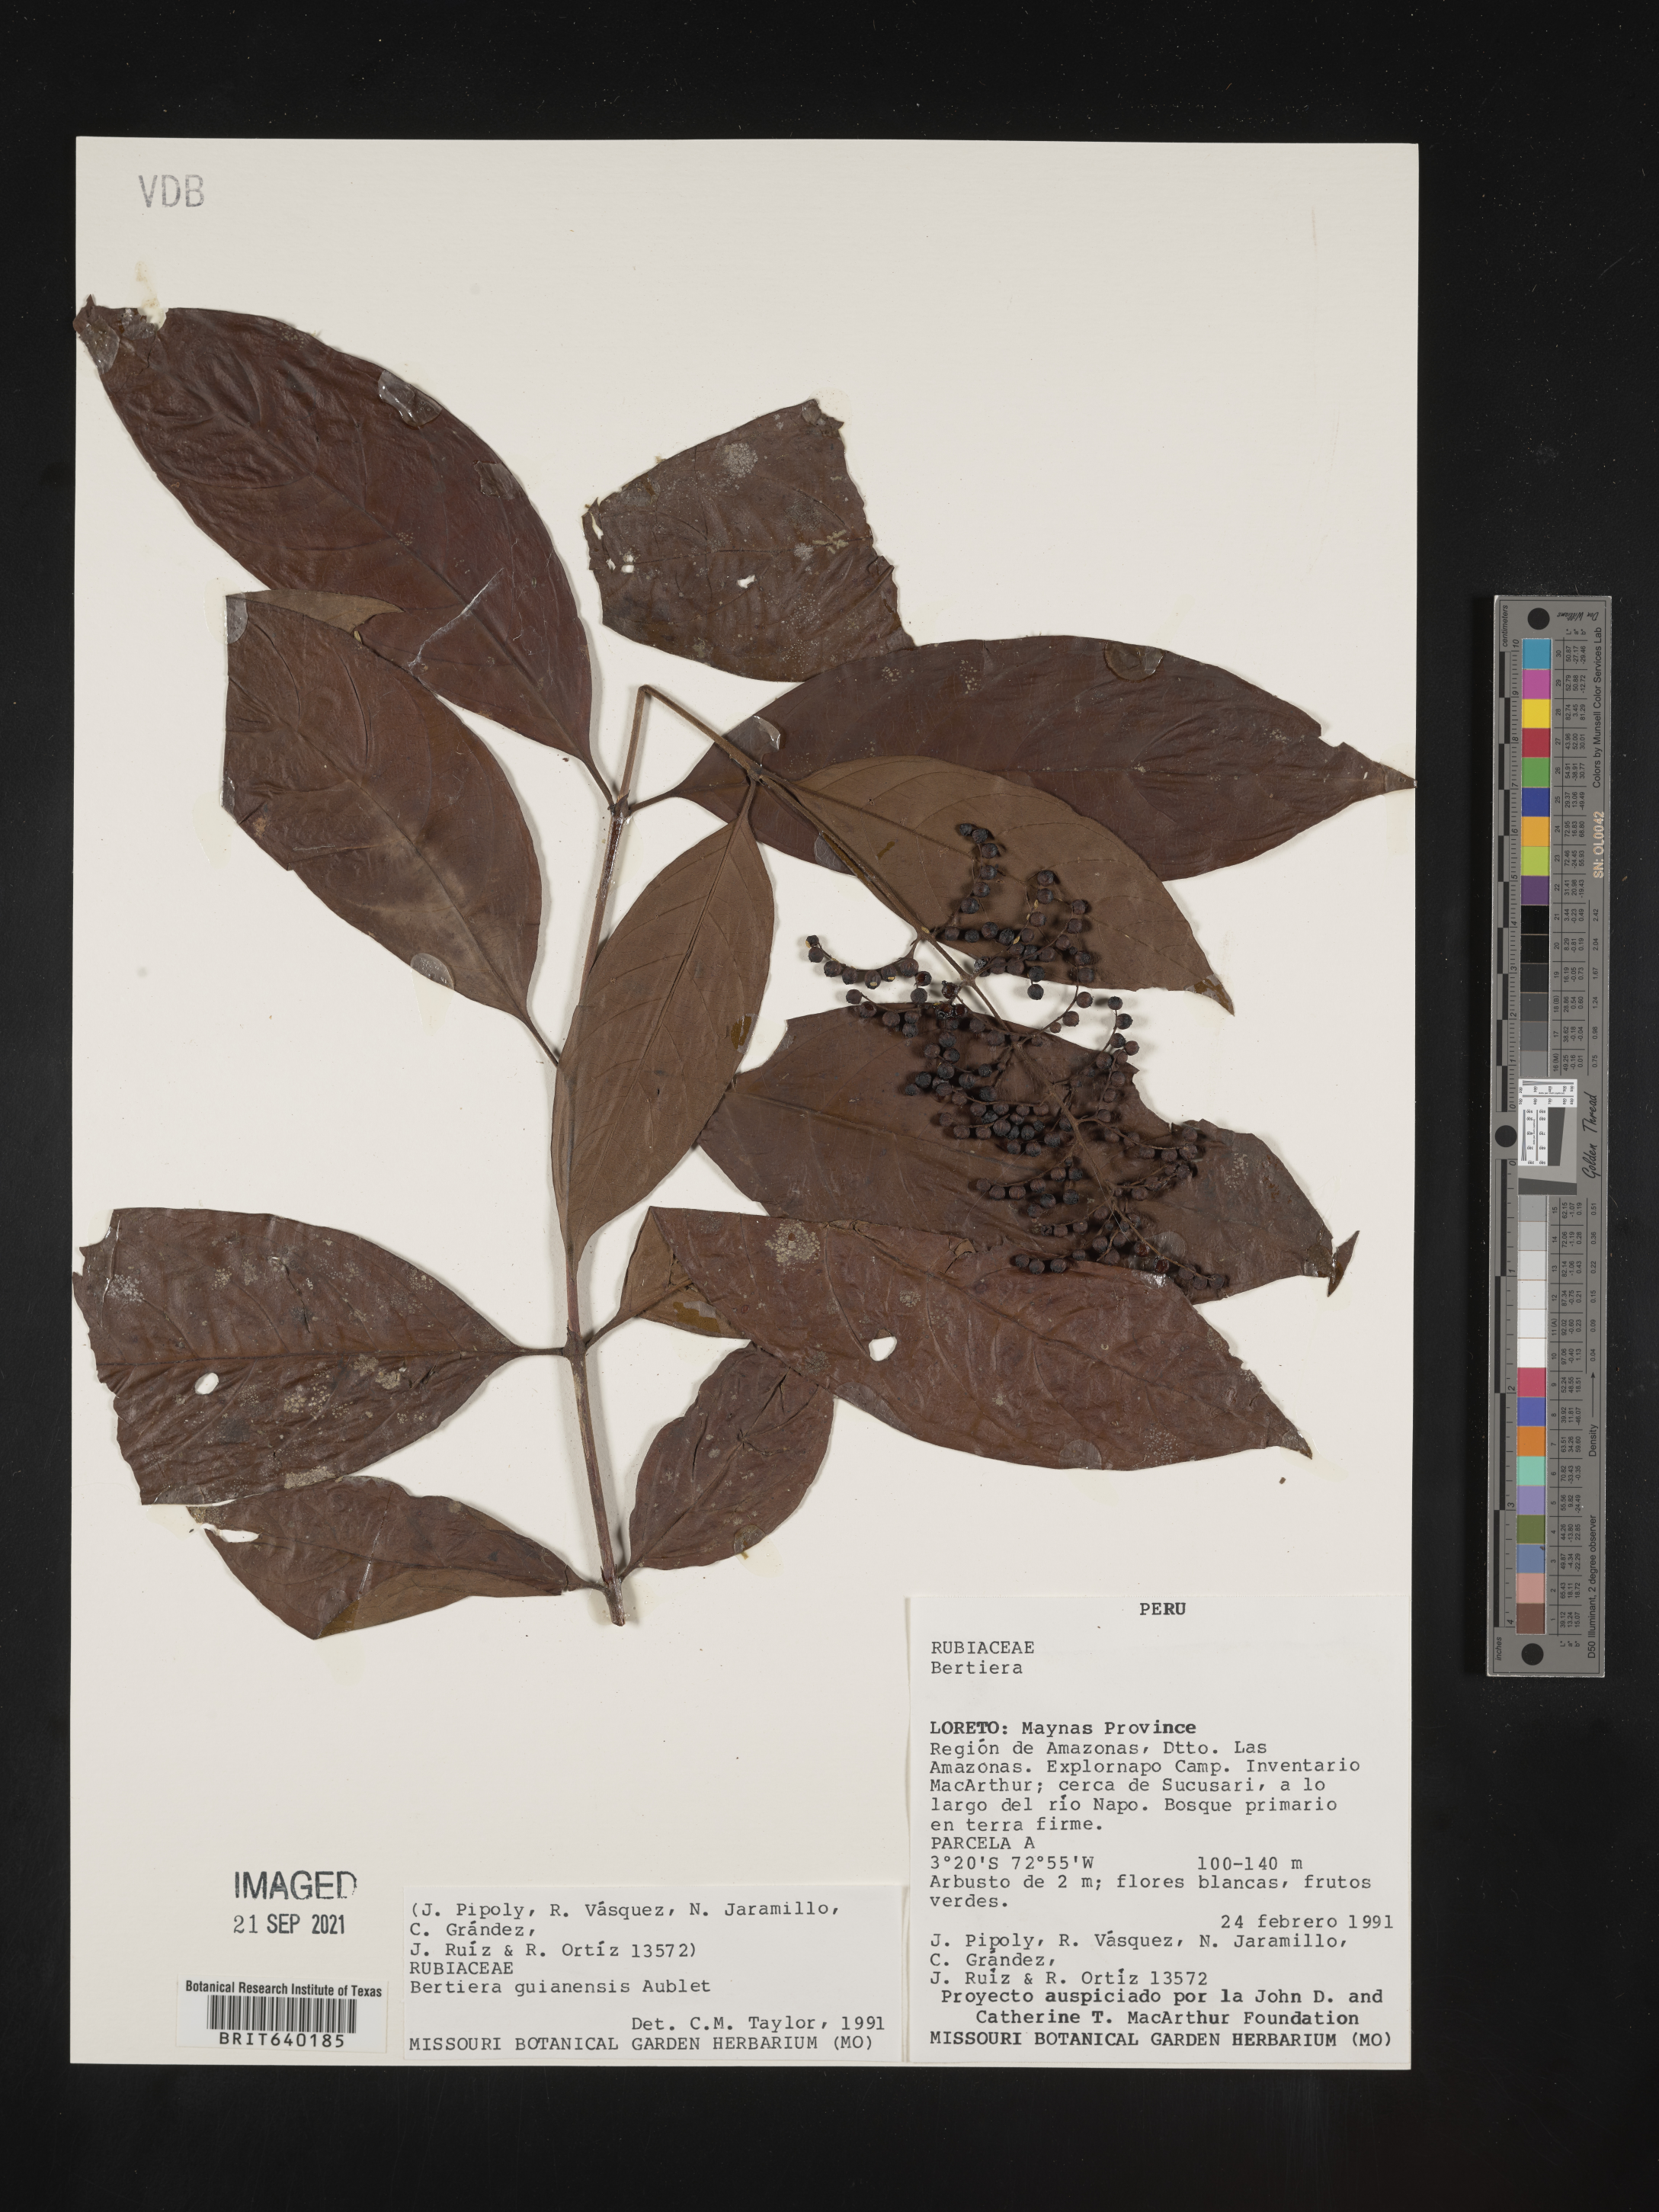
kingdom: Plantae
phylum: Tracheophyta
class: Magnoliopsida
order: Gentianales
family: Rubiaceae
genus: Bertiera
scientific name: Bertiera
